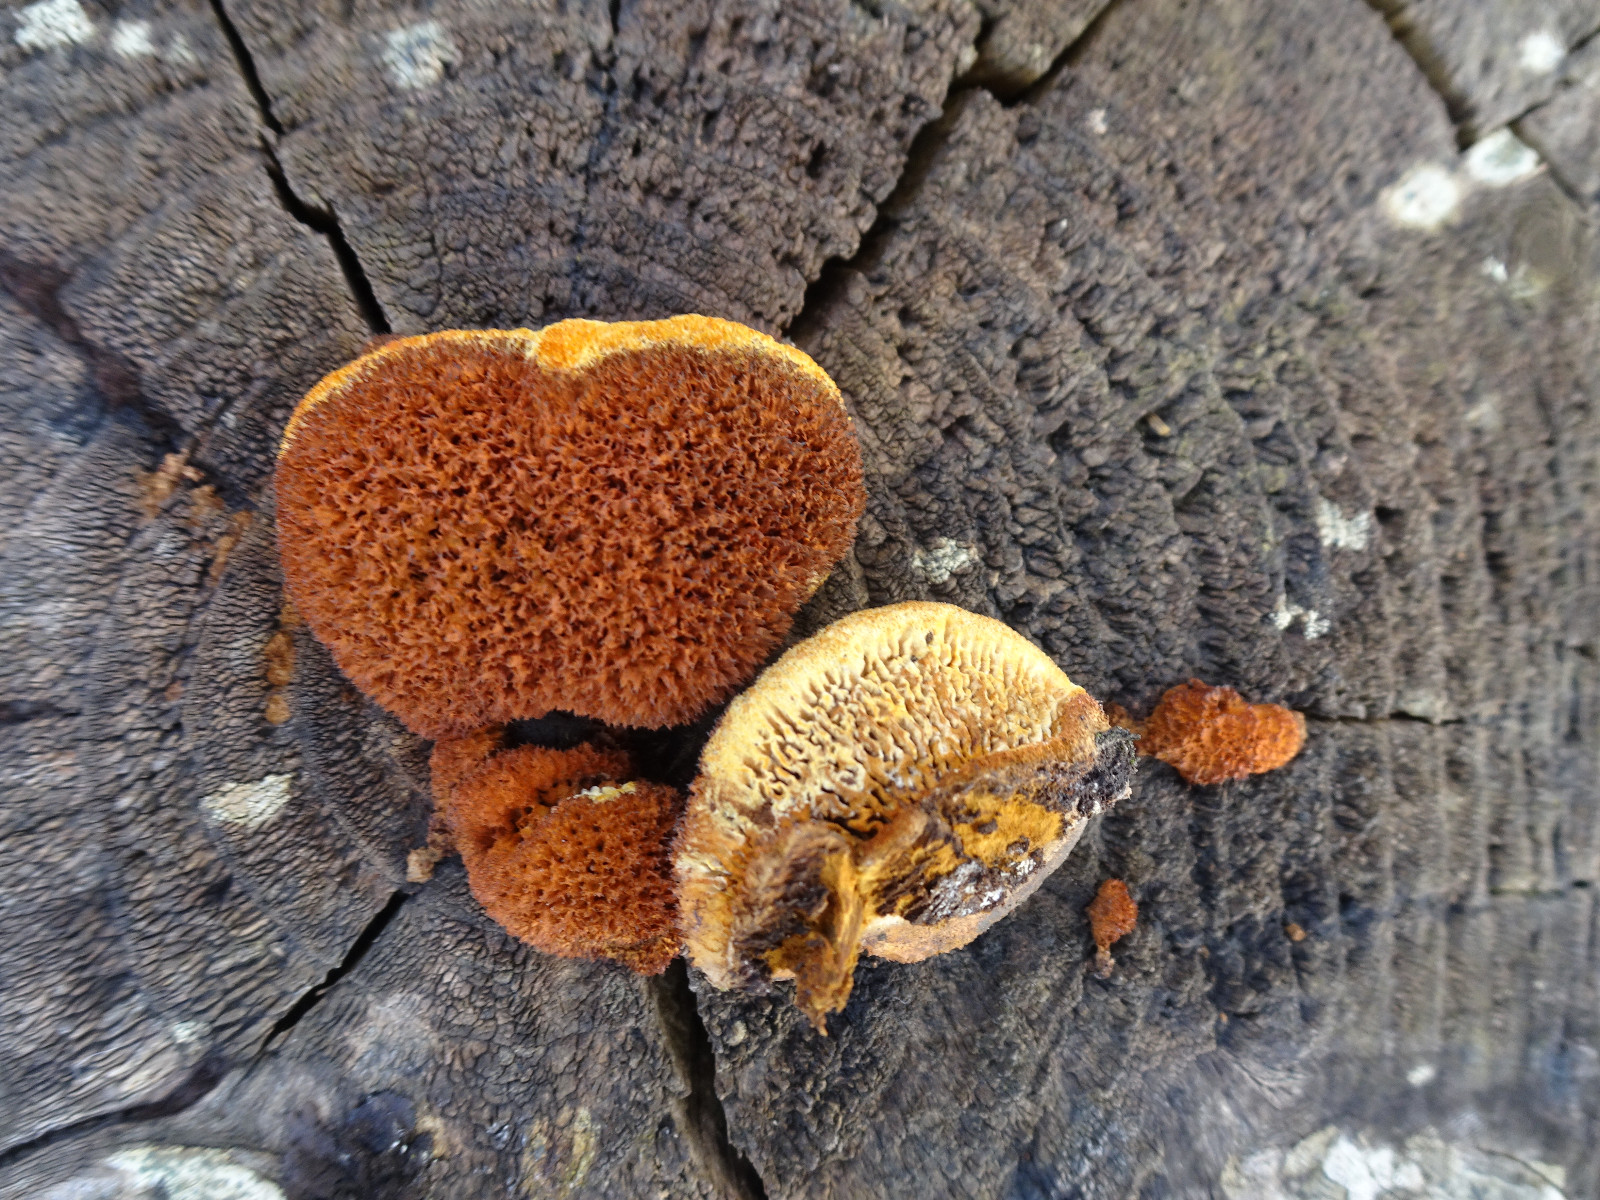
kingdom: Fungi
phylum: Basidiomycota
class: Agaricomycetes
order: Gloeophyllales
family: Gloeophyllaceae
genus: Gloeophyllum
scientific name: Gloeophyllum sepiarium
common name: fyrre-korkhat
